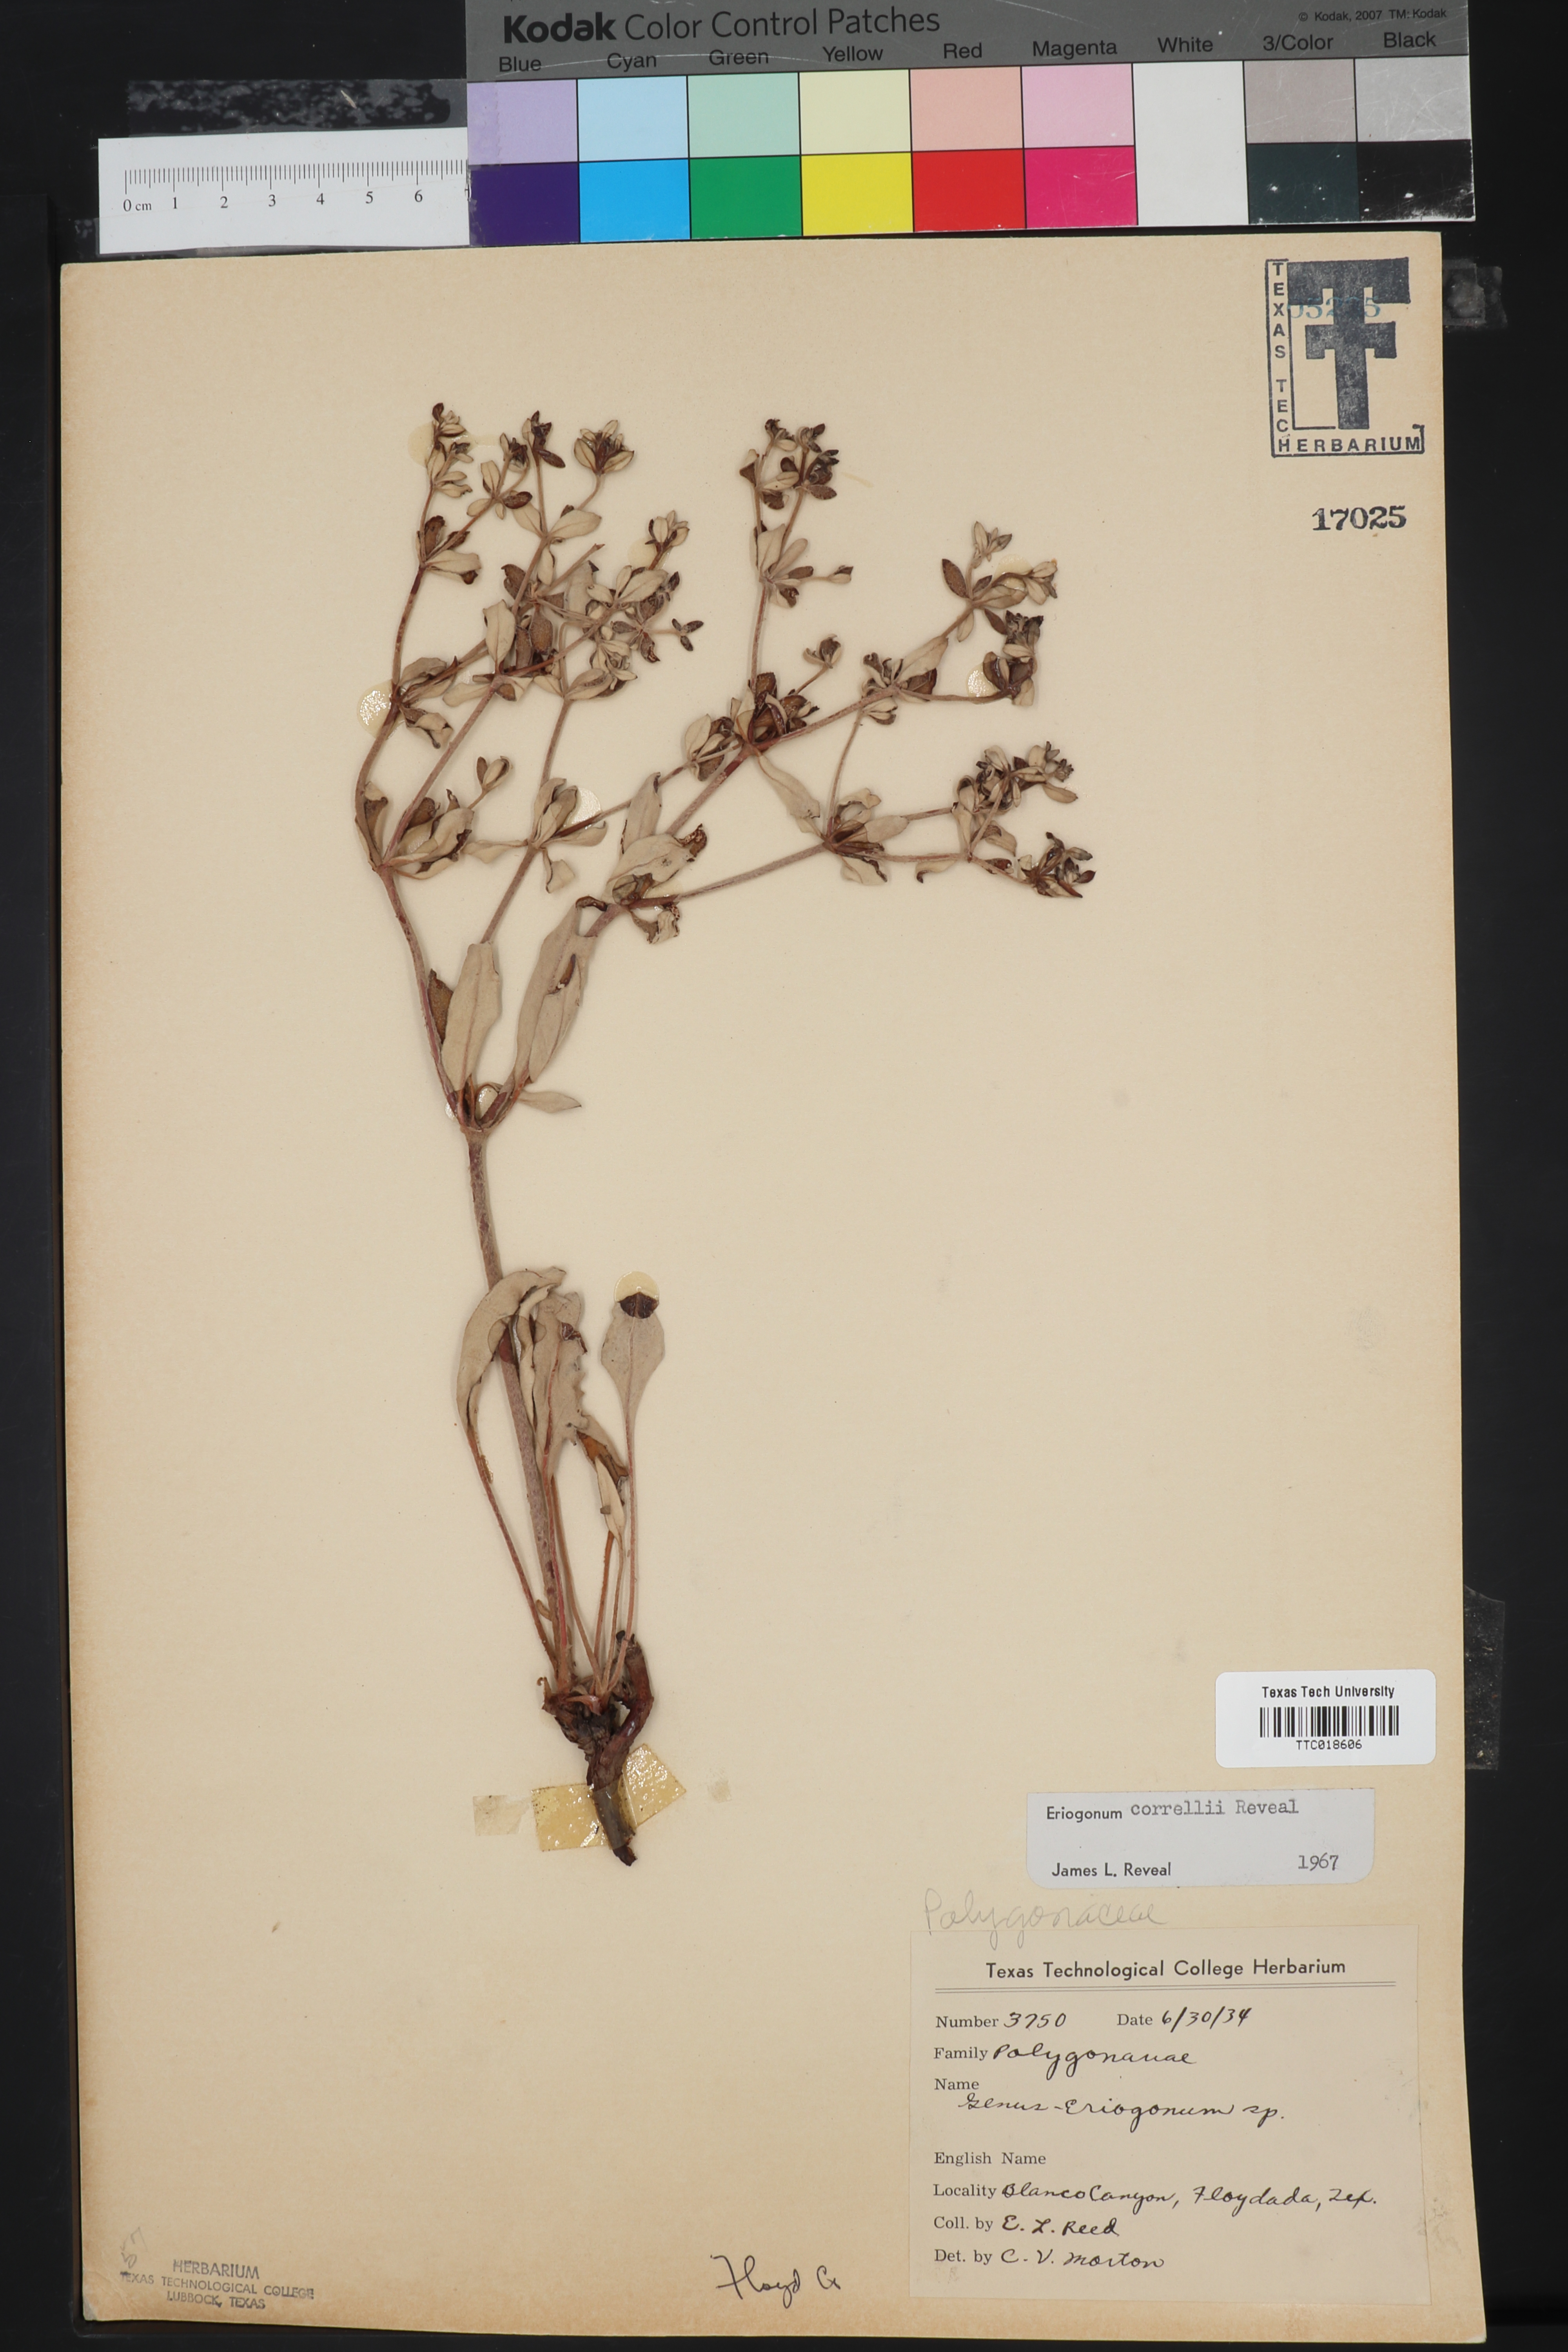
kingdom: Plantae
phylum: Tracheophyta
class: Magnoliopsida
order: Caryophyllales
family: Polygonaceae
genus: Eriogonum
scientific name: Eriogonum correllii
